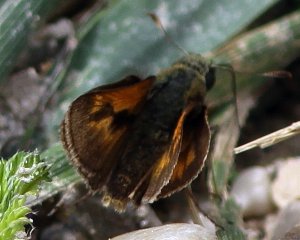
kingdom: Animalia
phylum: Arthropoda
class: Insecta
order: Lepidoptera
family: Hesperiidae
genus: Polites
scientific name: Polites
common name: Long Dash Skipper
